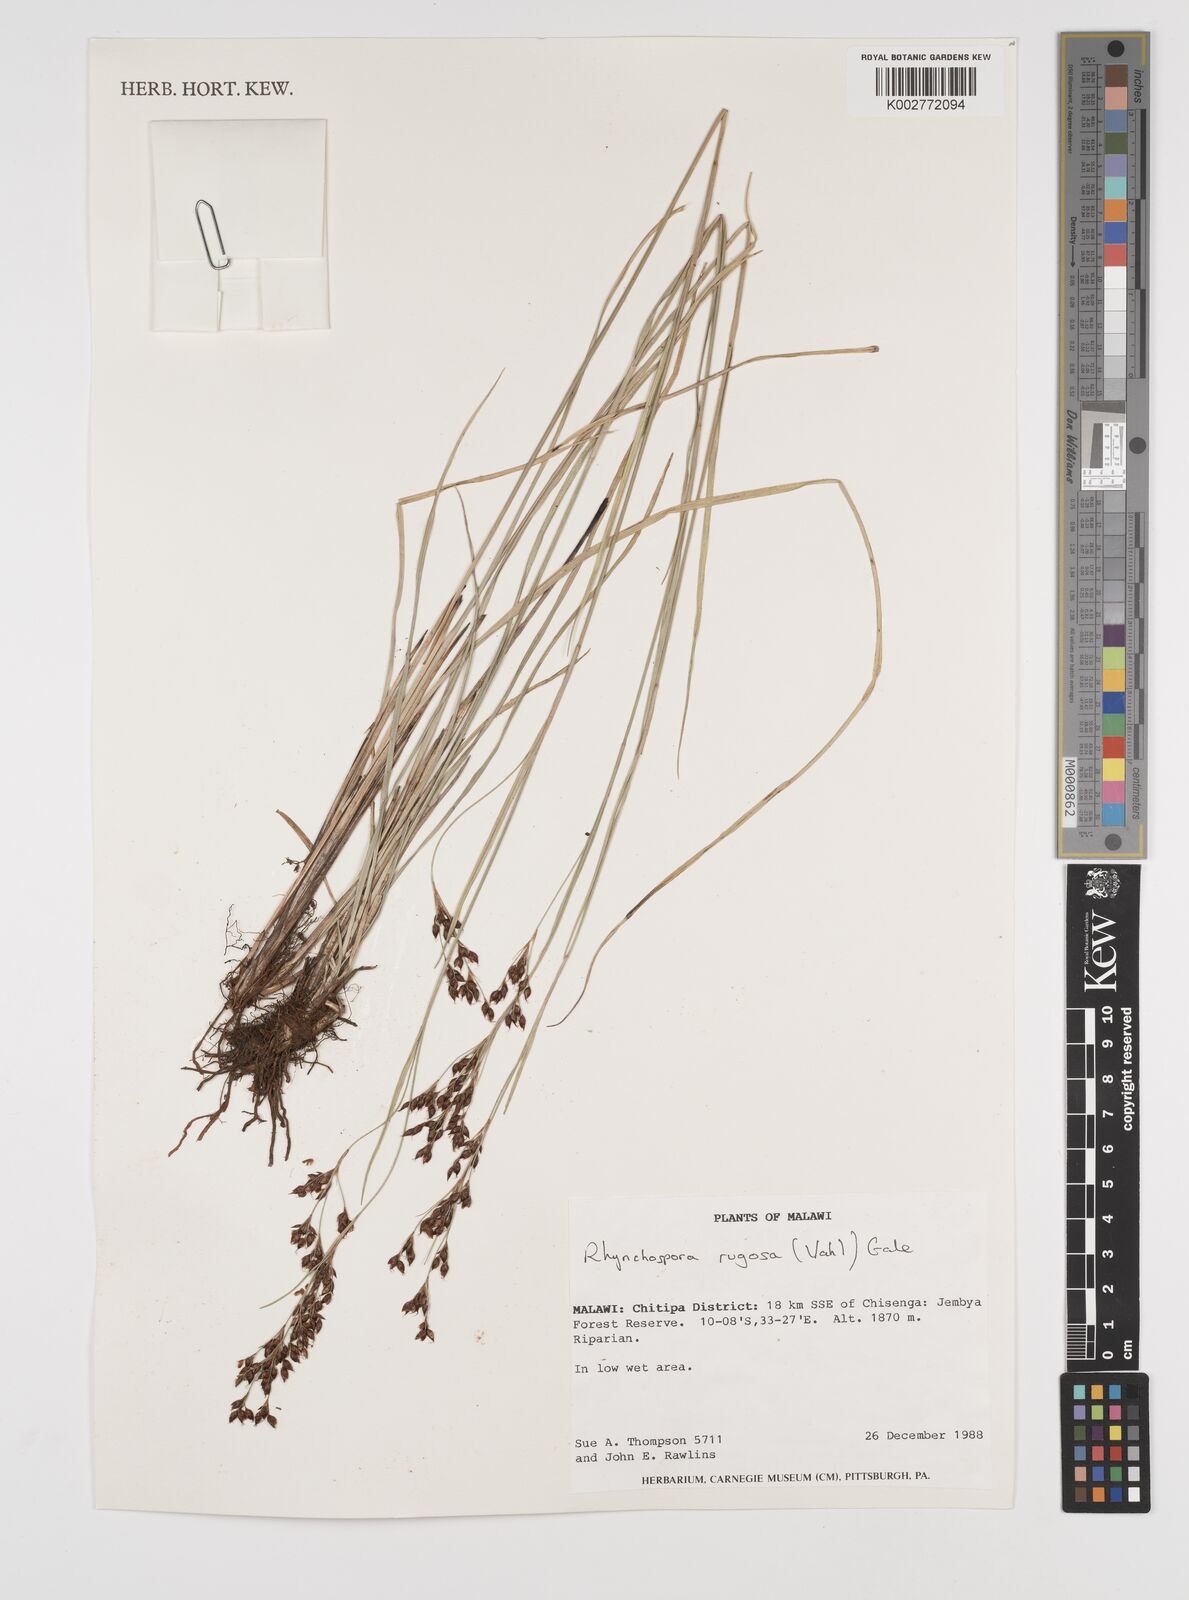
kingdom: Plantae
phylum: Tracheophyta
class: Liliopsida
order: Poales
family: Cyperaceae
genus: Rhynchospora
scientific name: Rhynchospora rugosa
